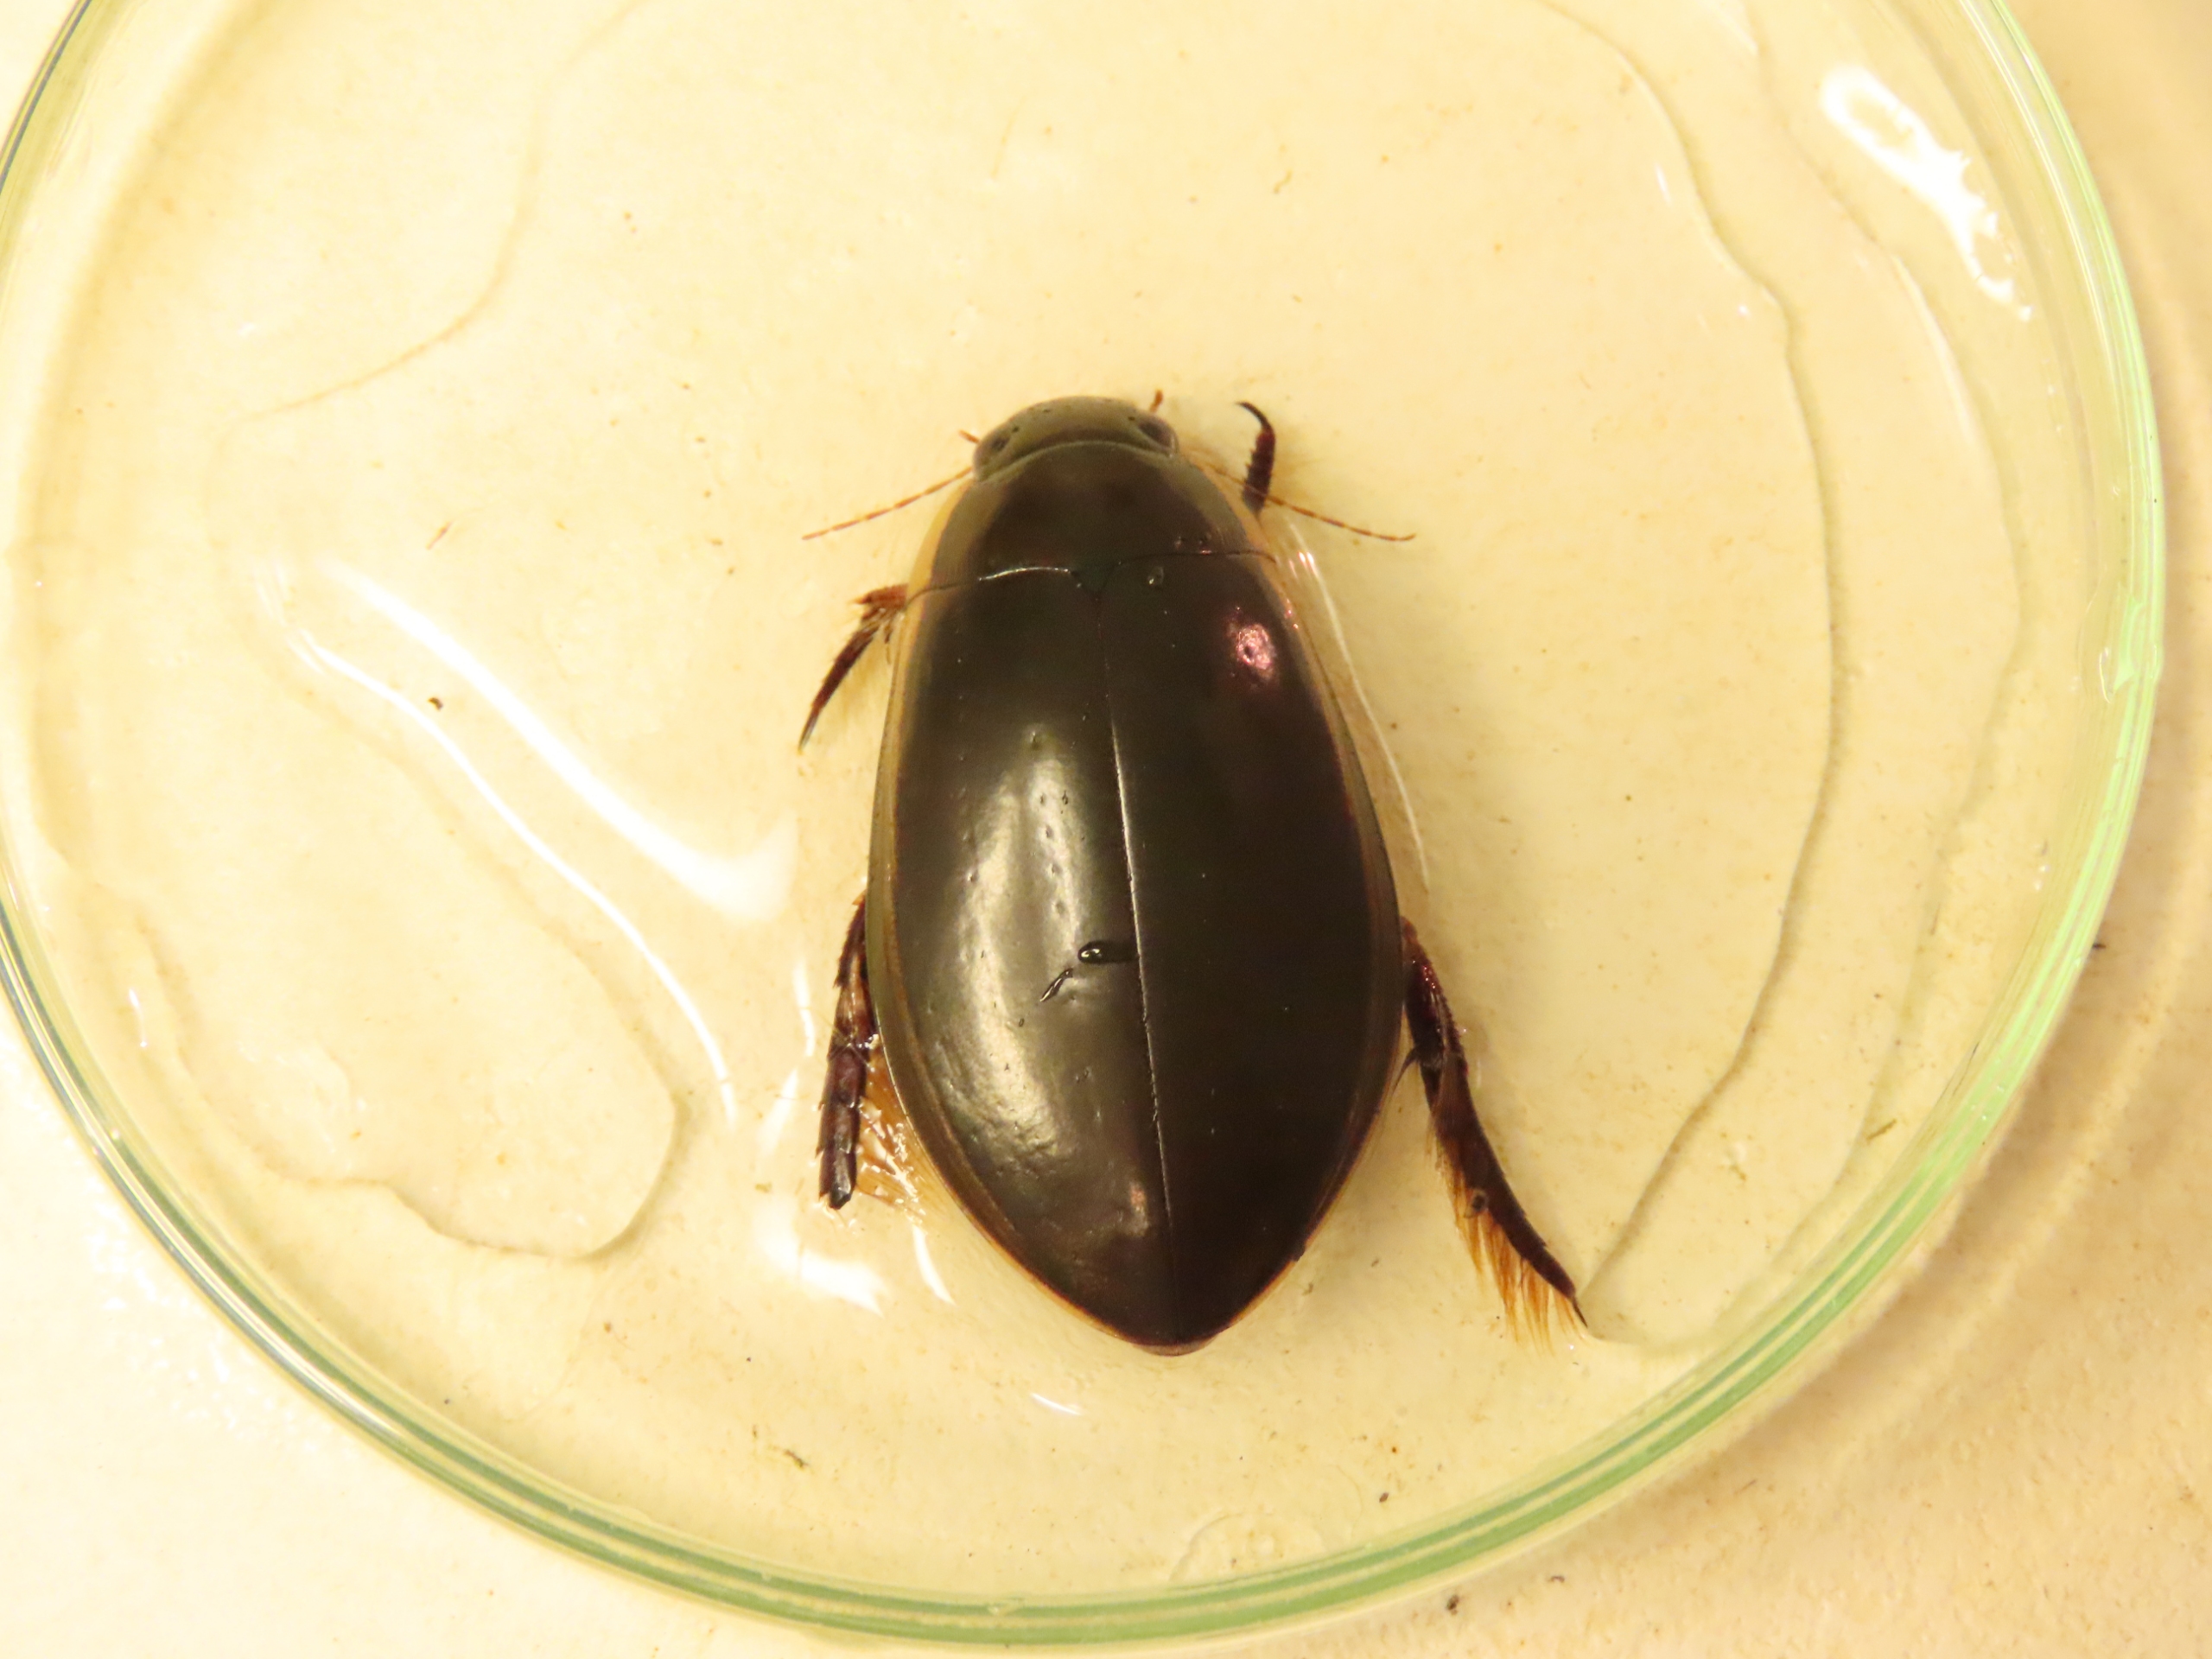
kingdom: Animalia
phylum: Arthropoda
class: Insecta
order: Coleoptera
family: Dytiscidae
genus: Cybister
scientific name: Cybister lateralimarginalis
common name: Dykkervandkalv
